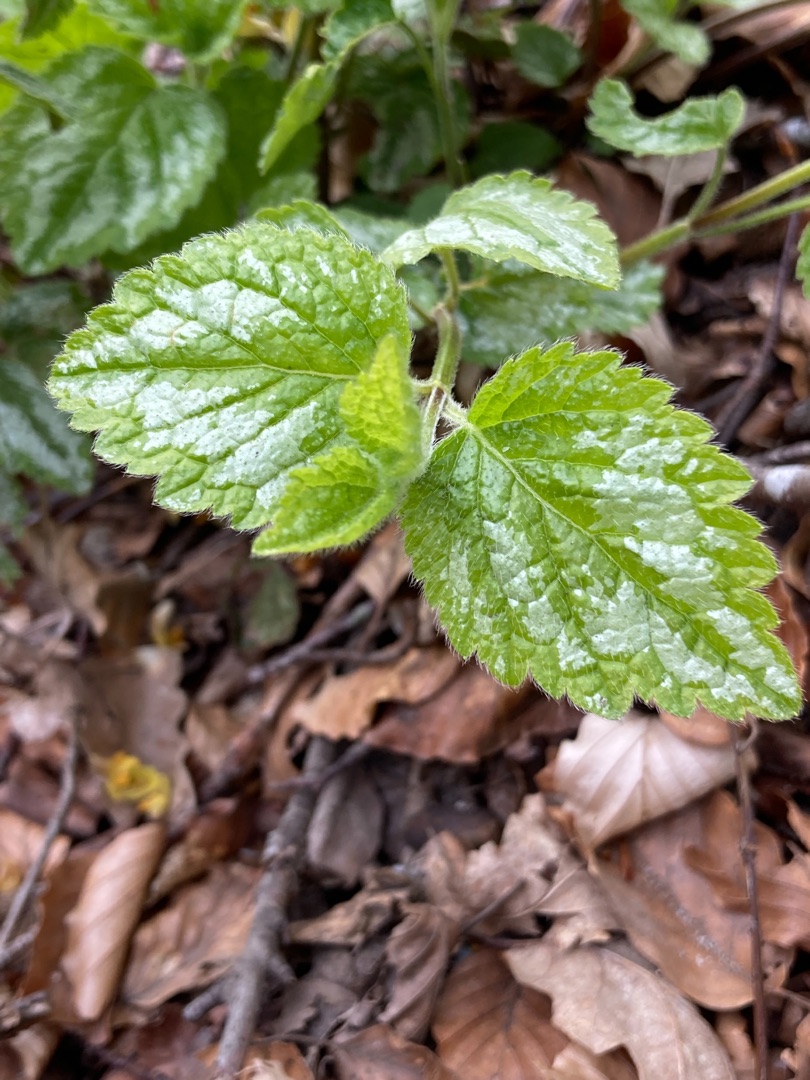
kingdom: Plantae
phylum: Tracheophyta
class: Magnoliopsida
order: Lamiales
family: Lamiaceae
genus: Lamium
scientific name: Lamium galeobdolon
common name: Have-guldnælde
